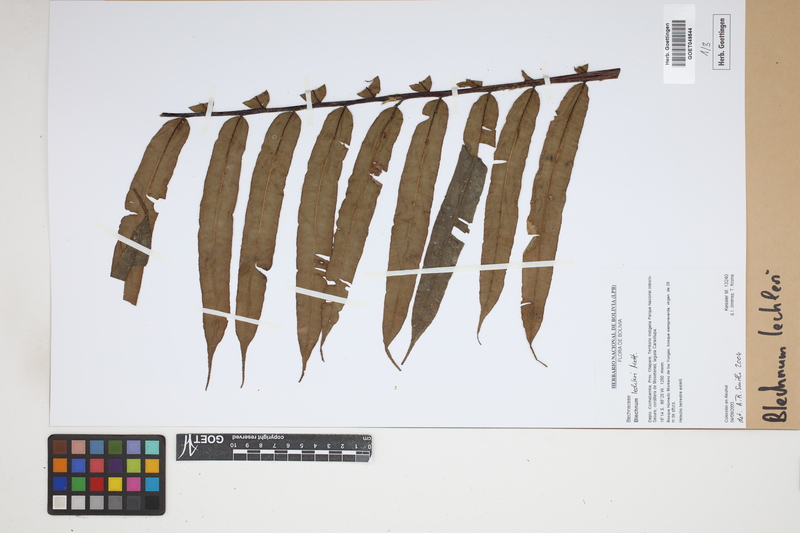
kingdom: Plantae
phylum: Tracheophyta
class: Polypodiopsida
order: Polypodiales
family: Blechnaceae
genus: Parablechnum
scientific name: Parablechnum lechleri
